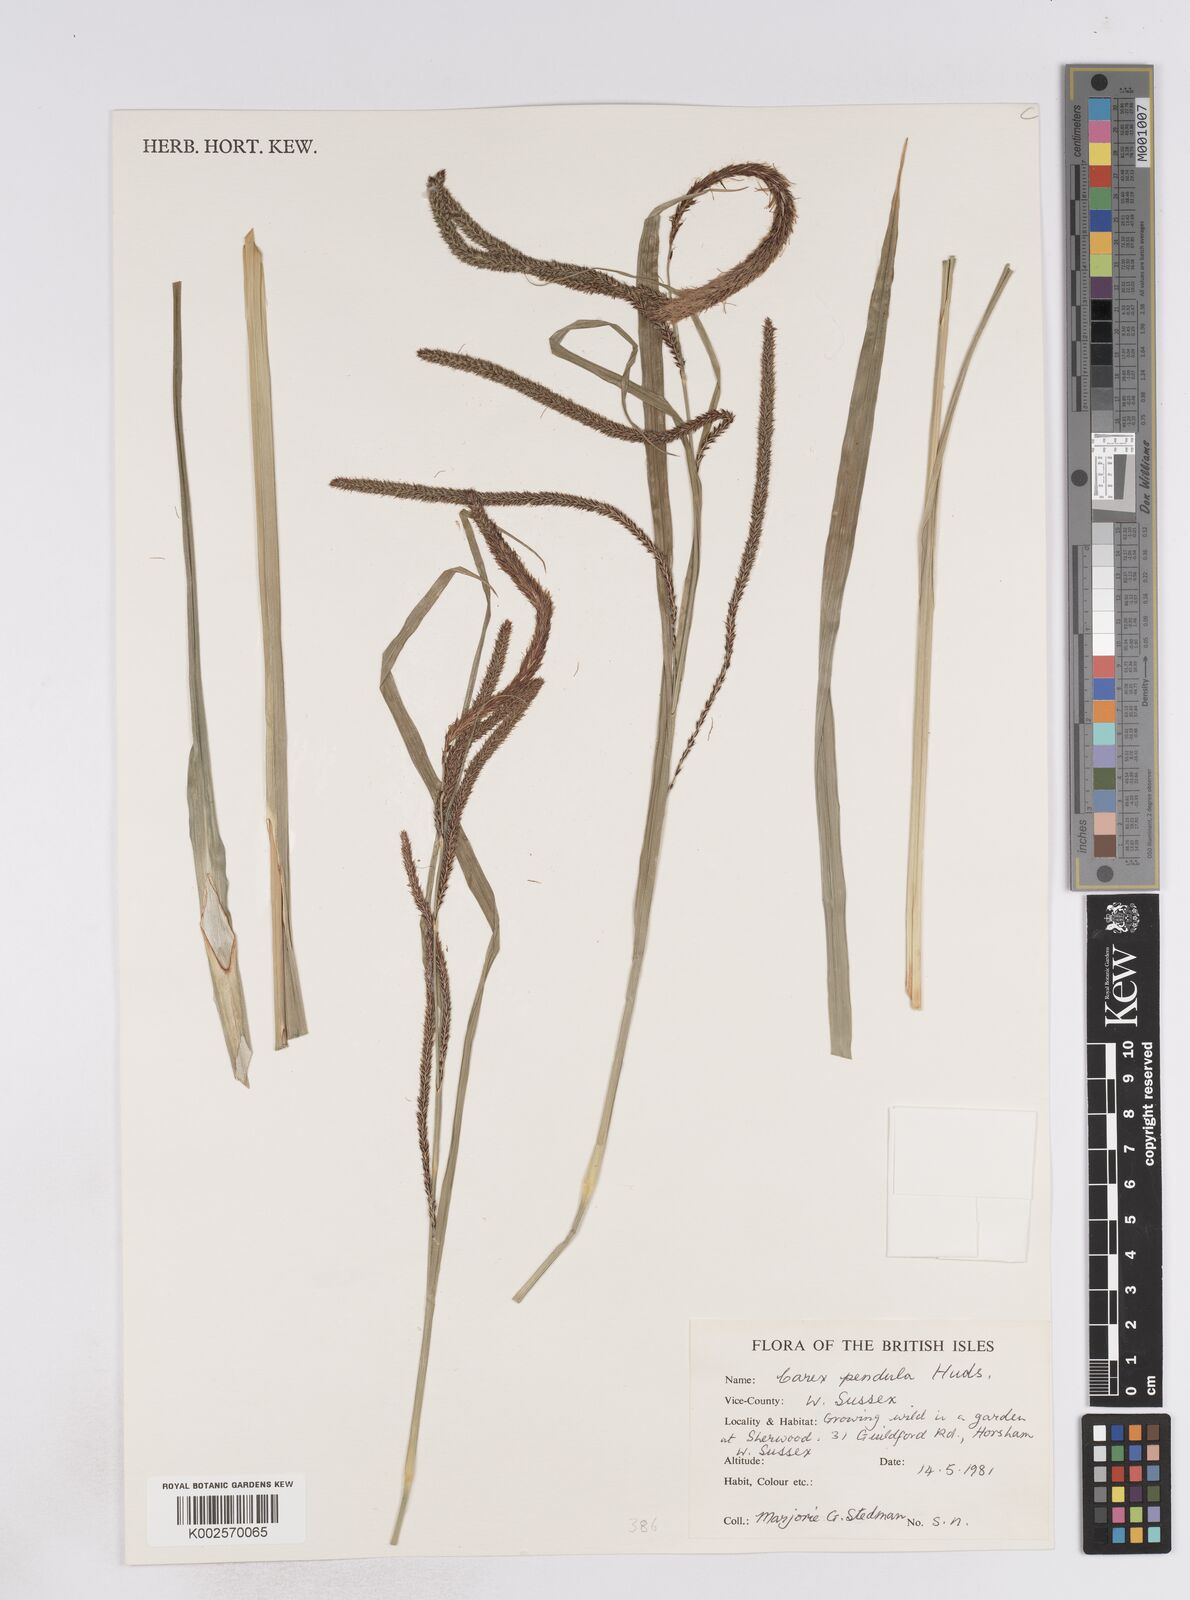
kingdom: Plantae
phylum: Tracheophyta
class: Liliopsida
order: Poales
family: Cyperaceae
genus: Carex
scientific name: Carex pendula
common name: Pendulous sedge
